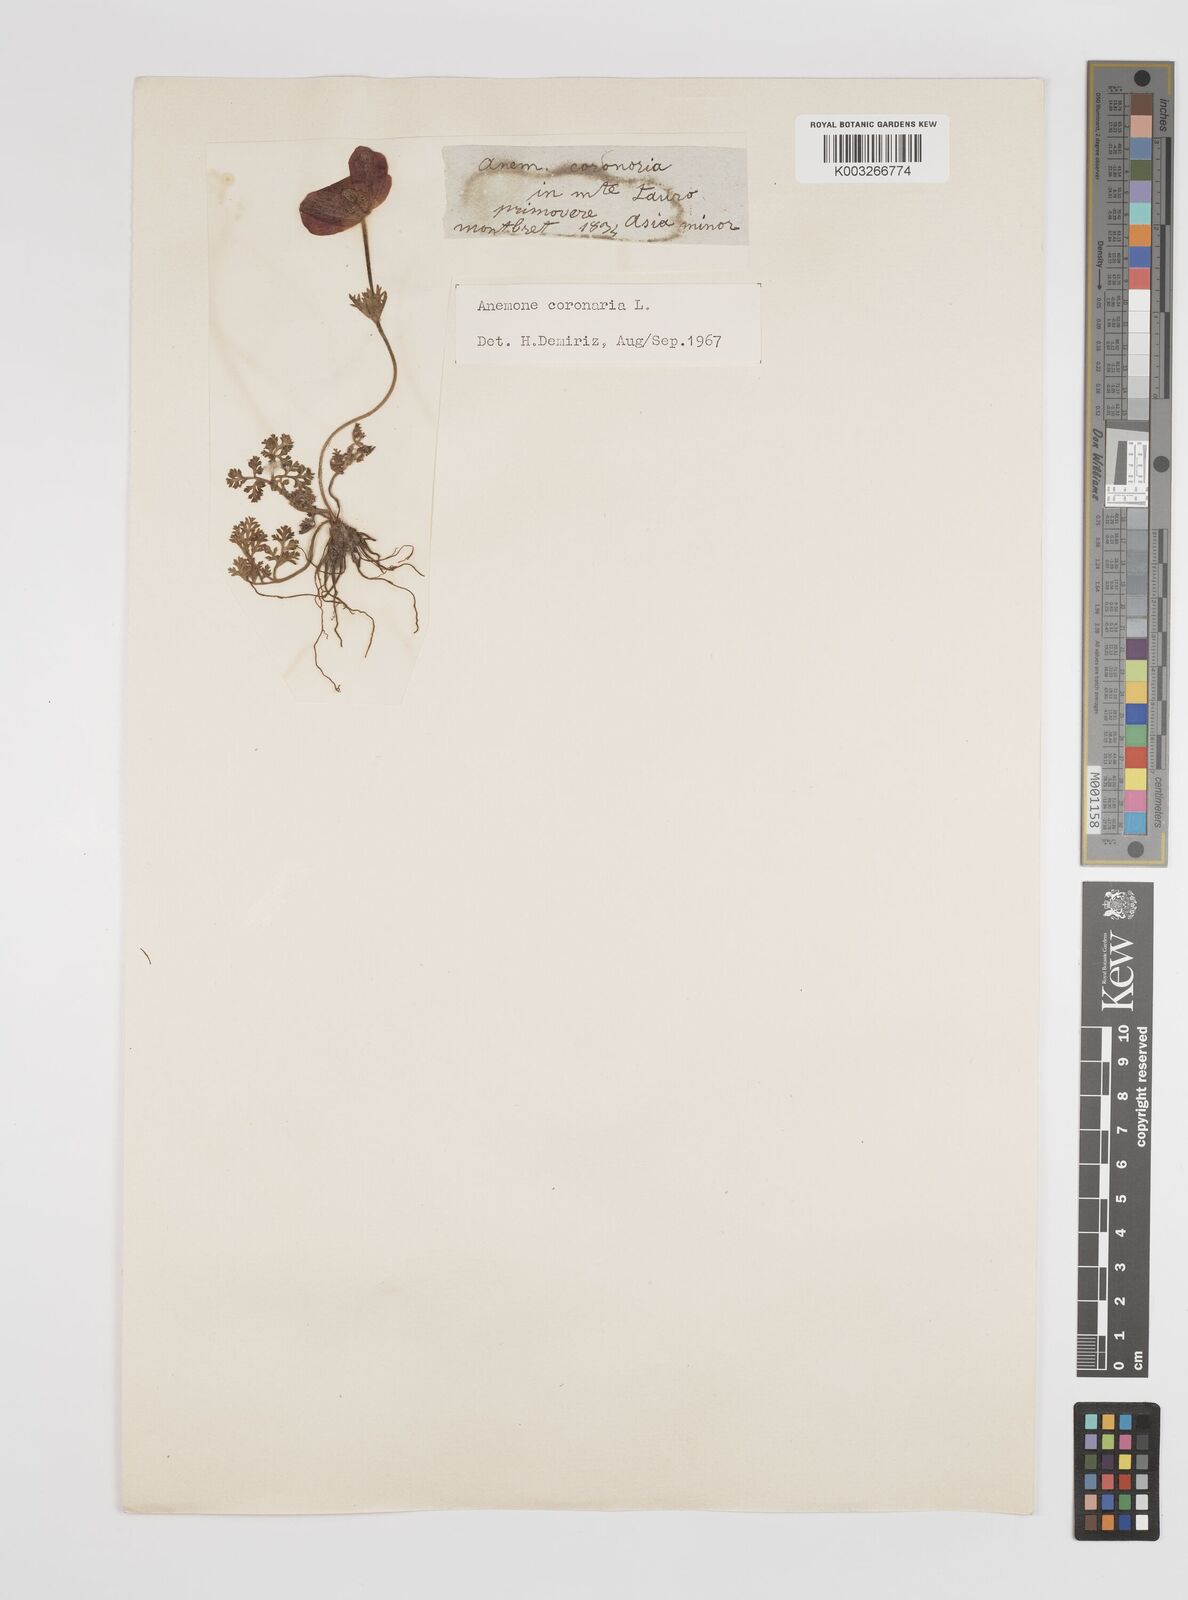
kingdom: Plantae
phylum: Tracheophyta
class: Magnoliopsida
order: Ranunculales
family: Ranunculaceae
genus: Anemone
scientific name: Anemone coronaria
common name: Poppy anemone
